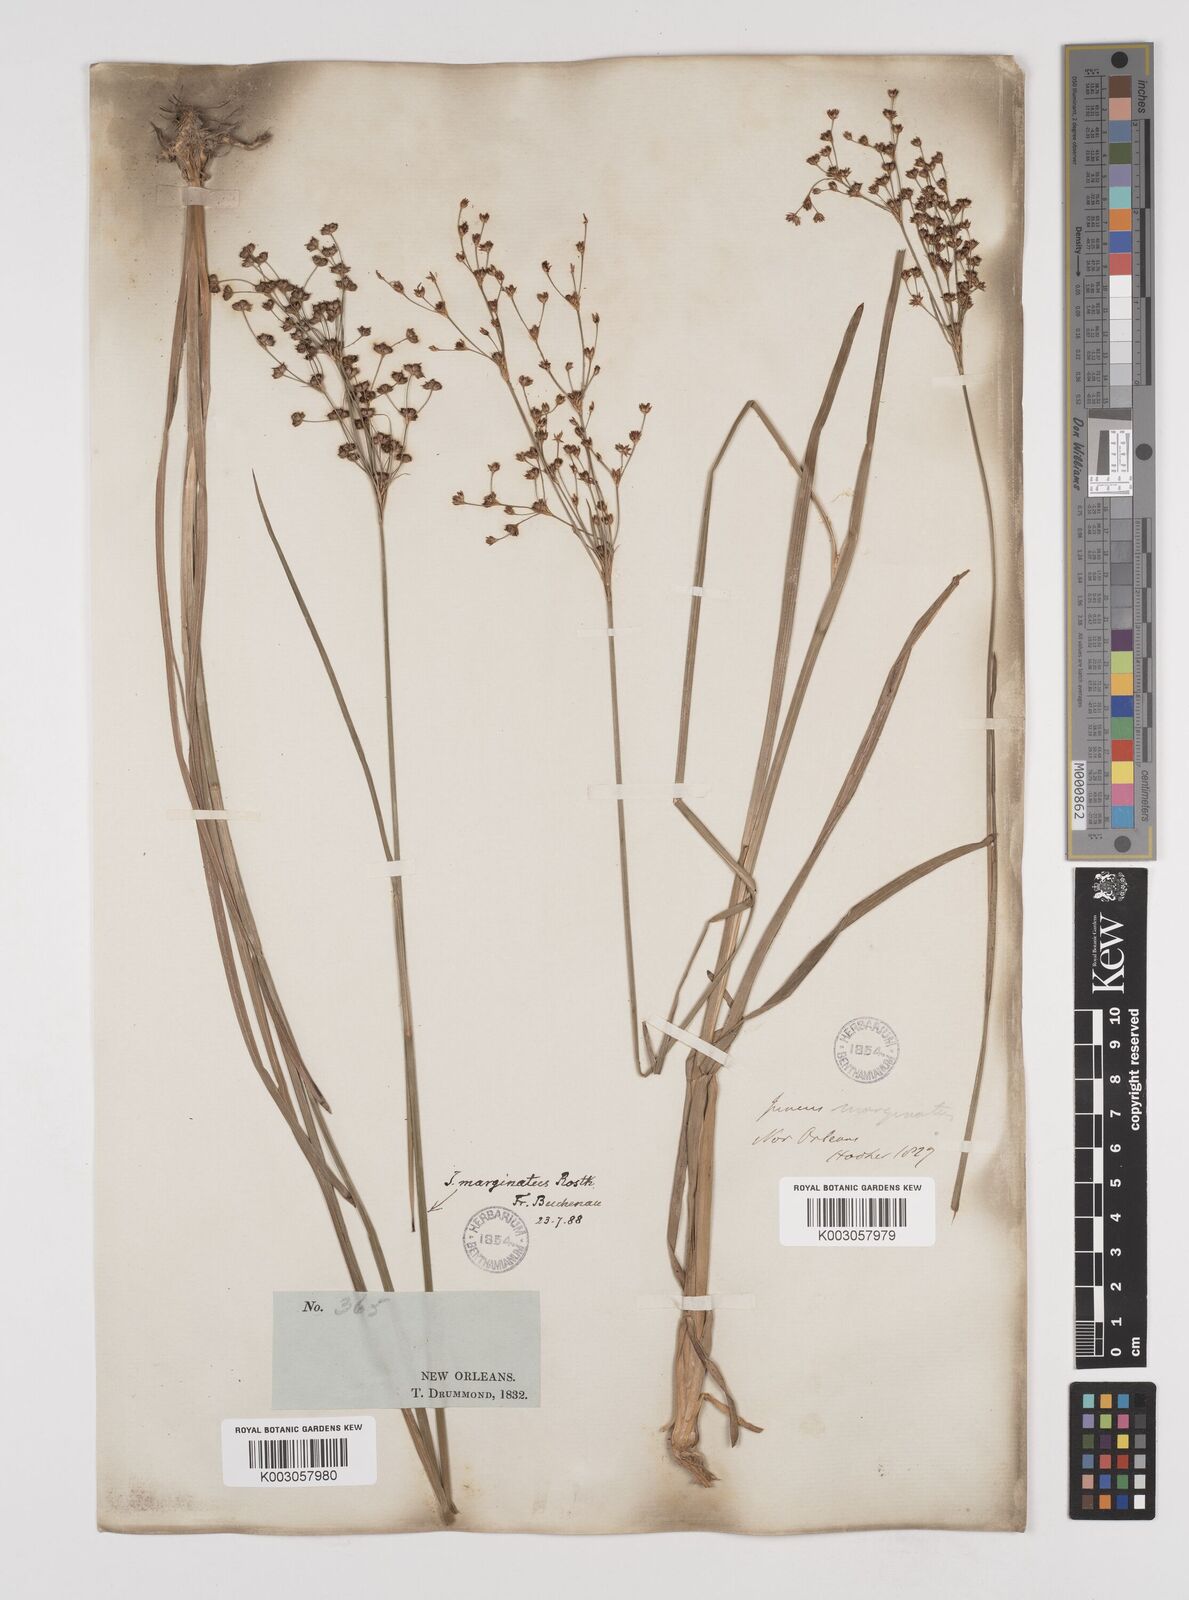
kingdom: Plantae
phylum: Tracheophyta
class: Liliopsida
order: Poales
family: Juncaceae
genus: Juncus
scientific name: Juncus marginatus
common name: Grass-leaf rush
